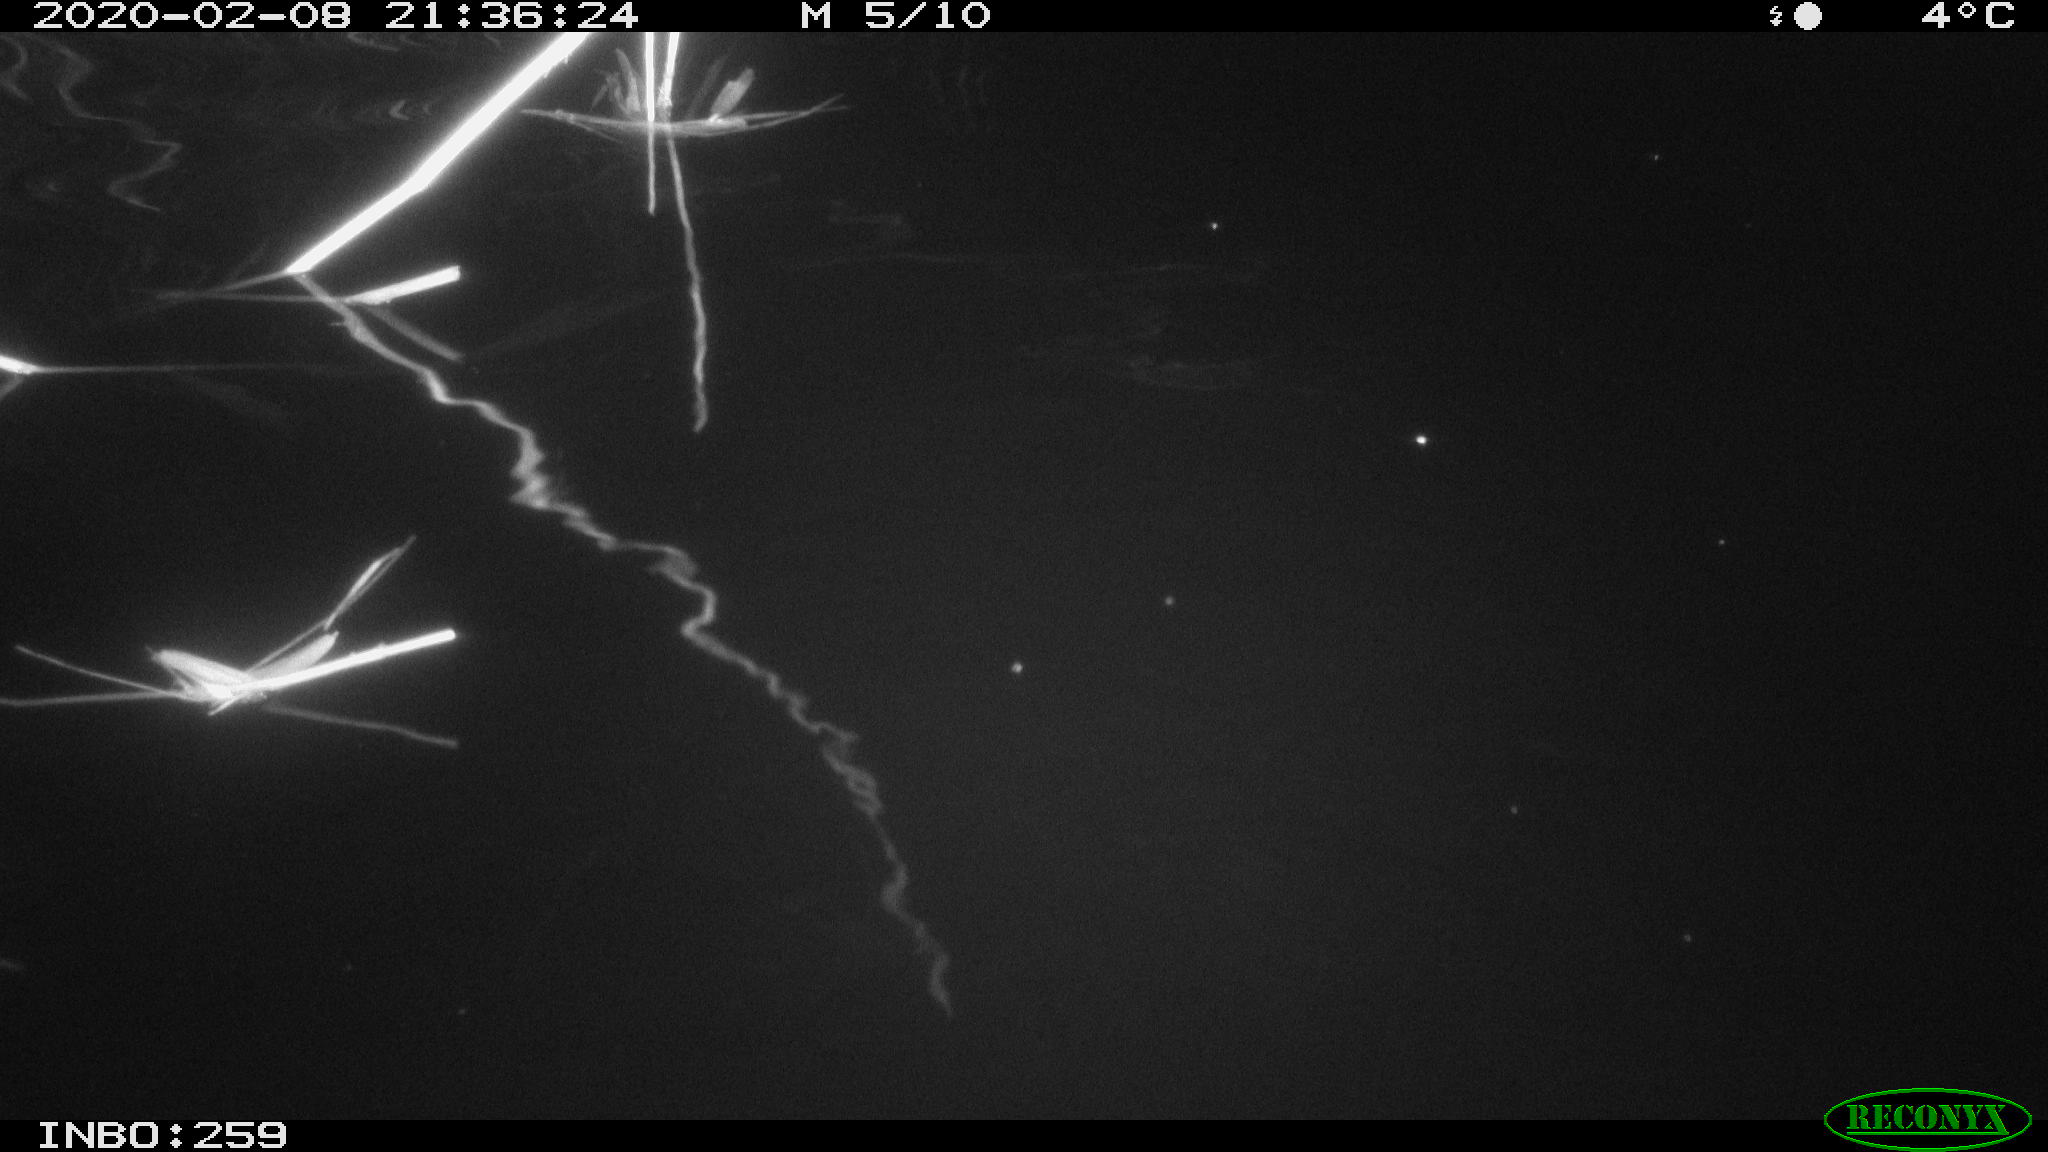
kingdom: Animalia
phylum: Chordata
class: Mammalia
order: Rodentia
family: Cricetidae
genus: Ondatra
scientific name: Ondatra zibethicus
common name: Muskrat
